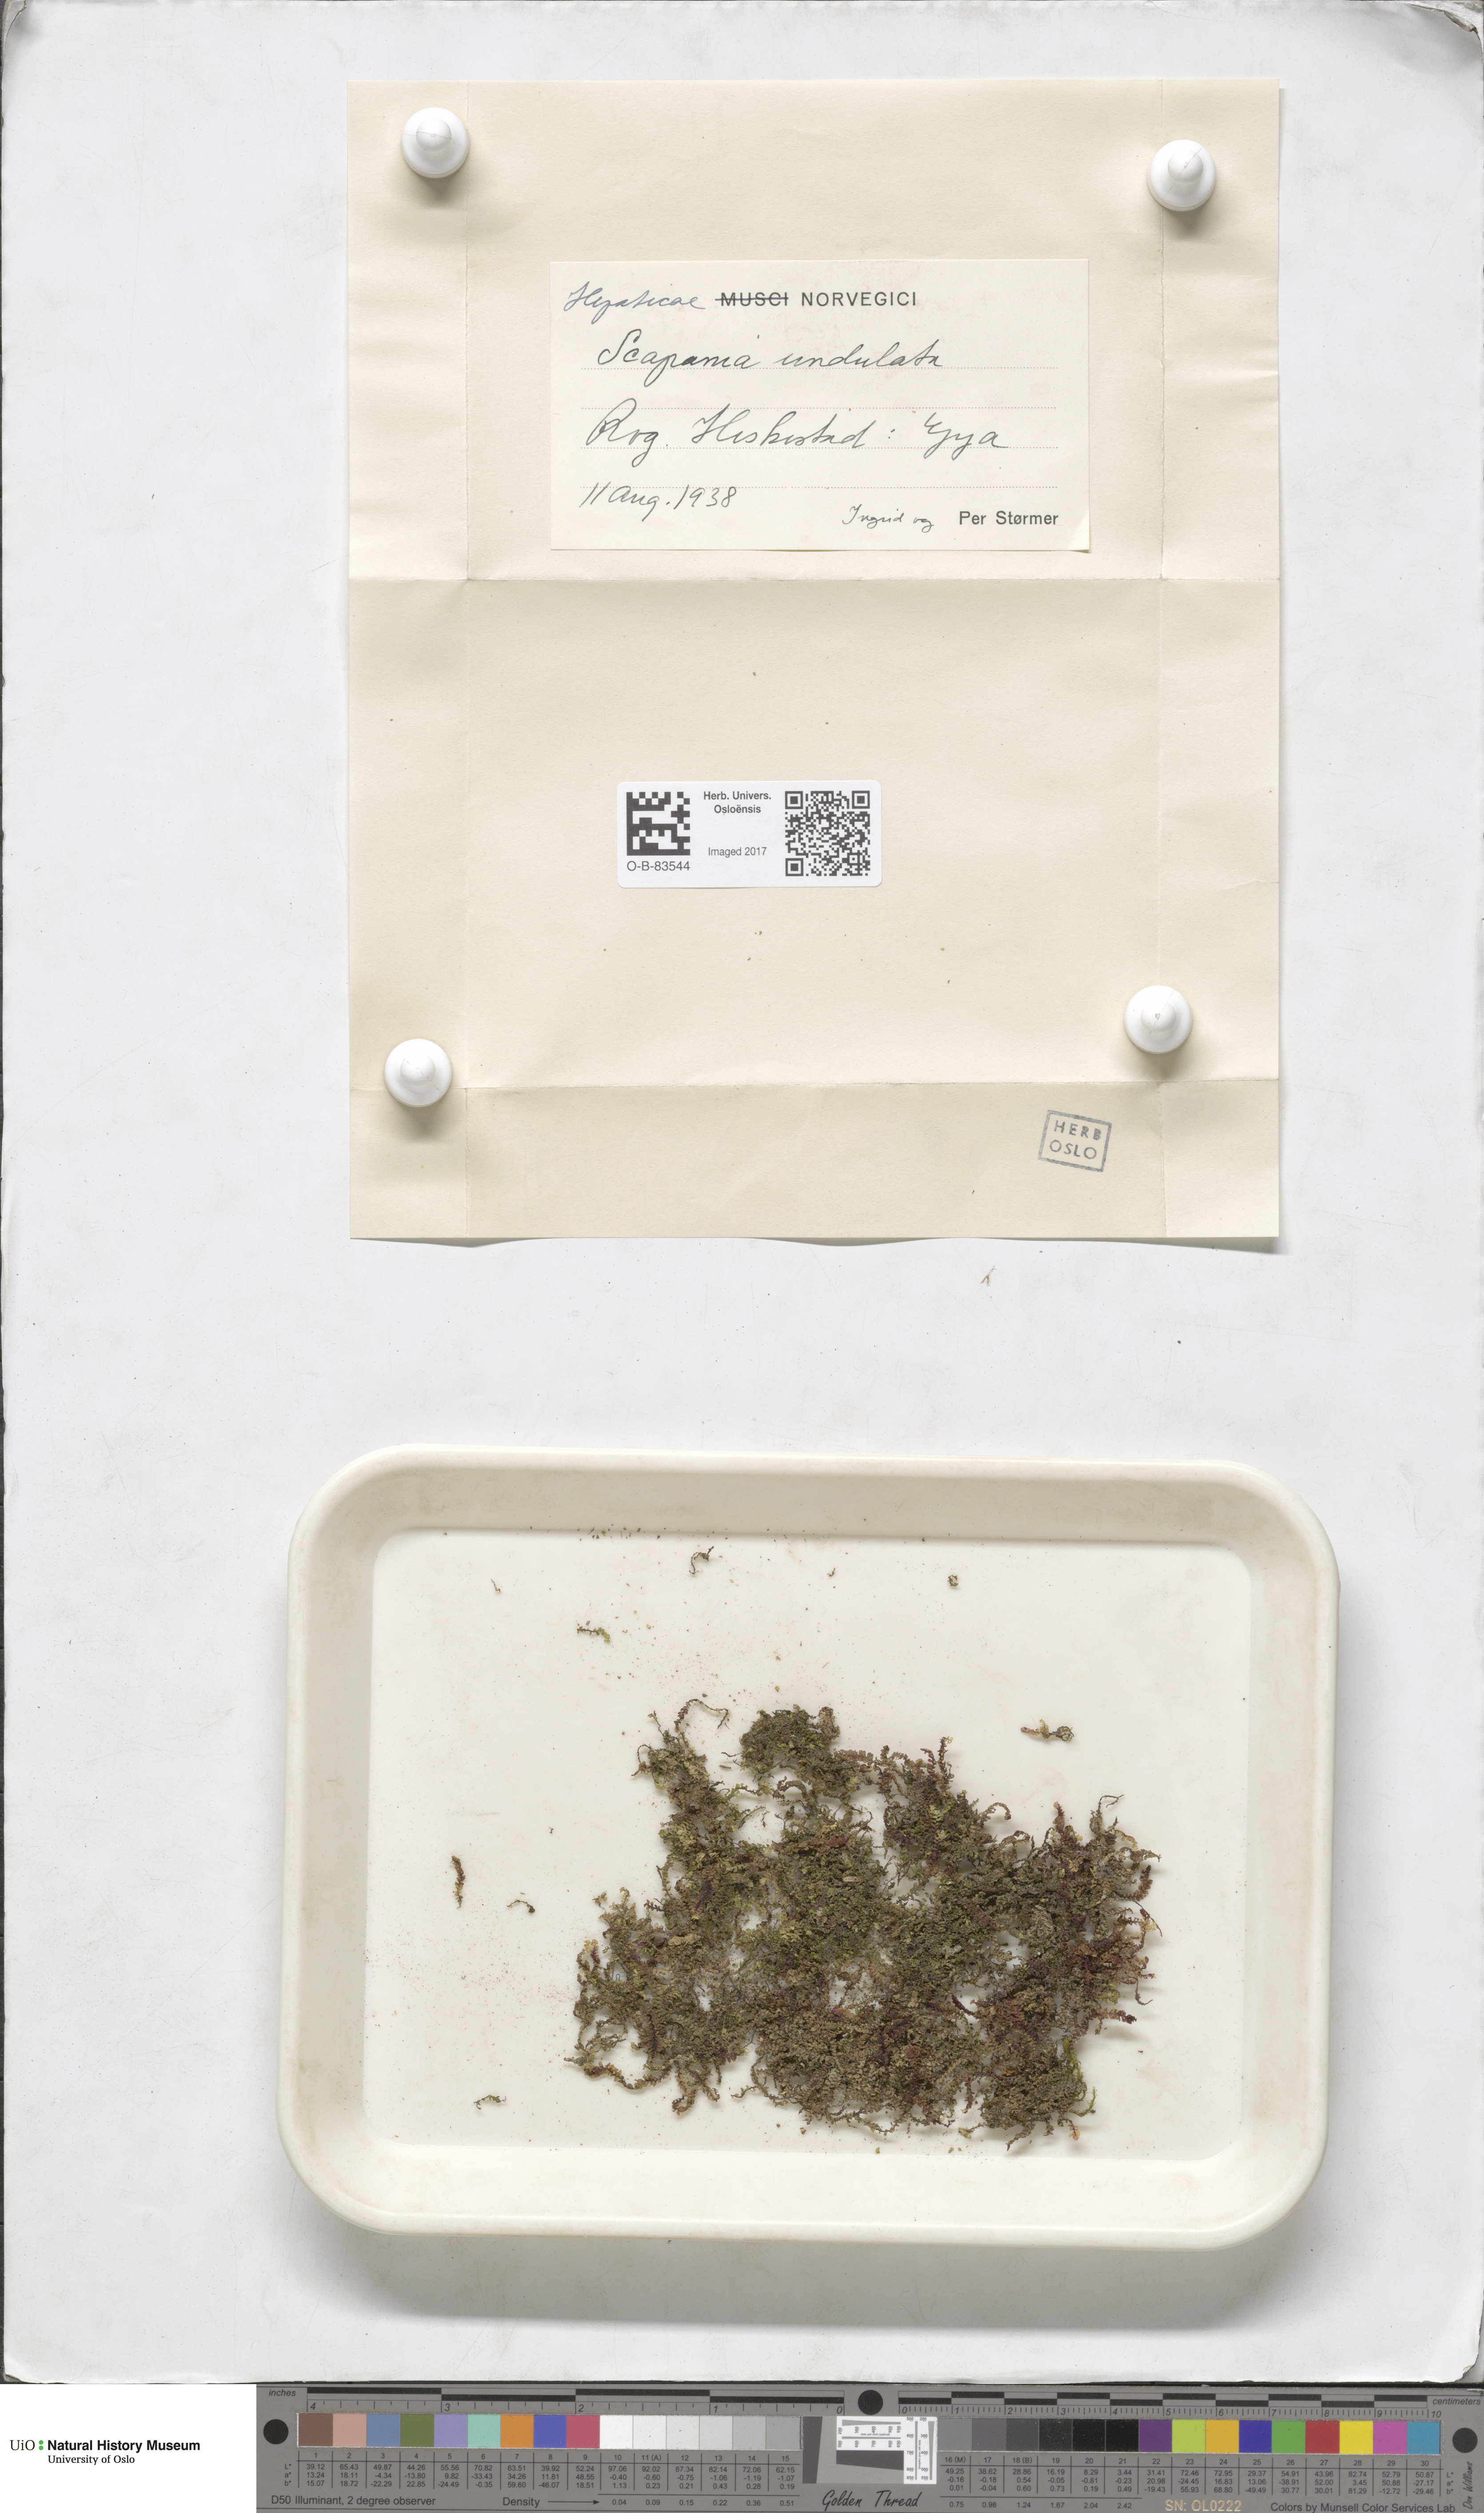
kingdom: Plantae
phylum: Marchantiophyta
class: Jungermanniopsida
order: Jungermanniales
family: Scapaniaceae
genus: Scapania
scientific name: Scapania undulata
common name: Water earwort
